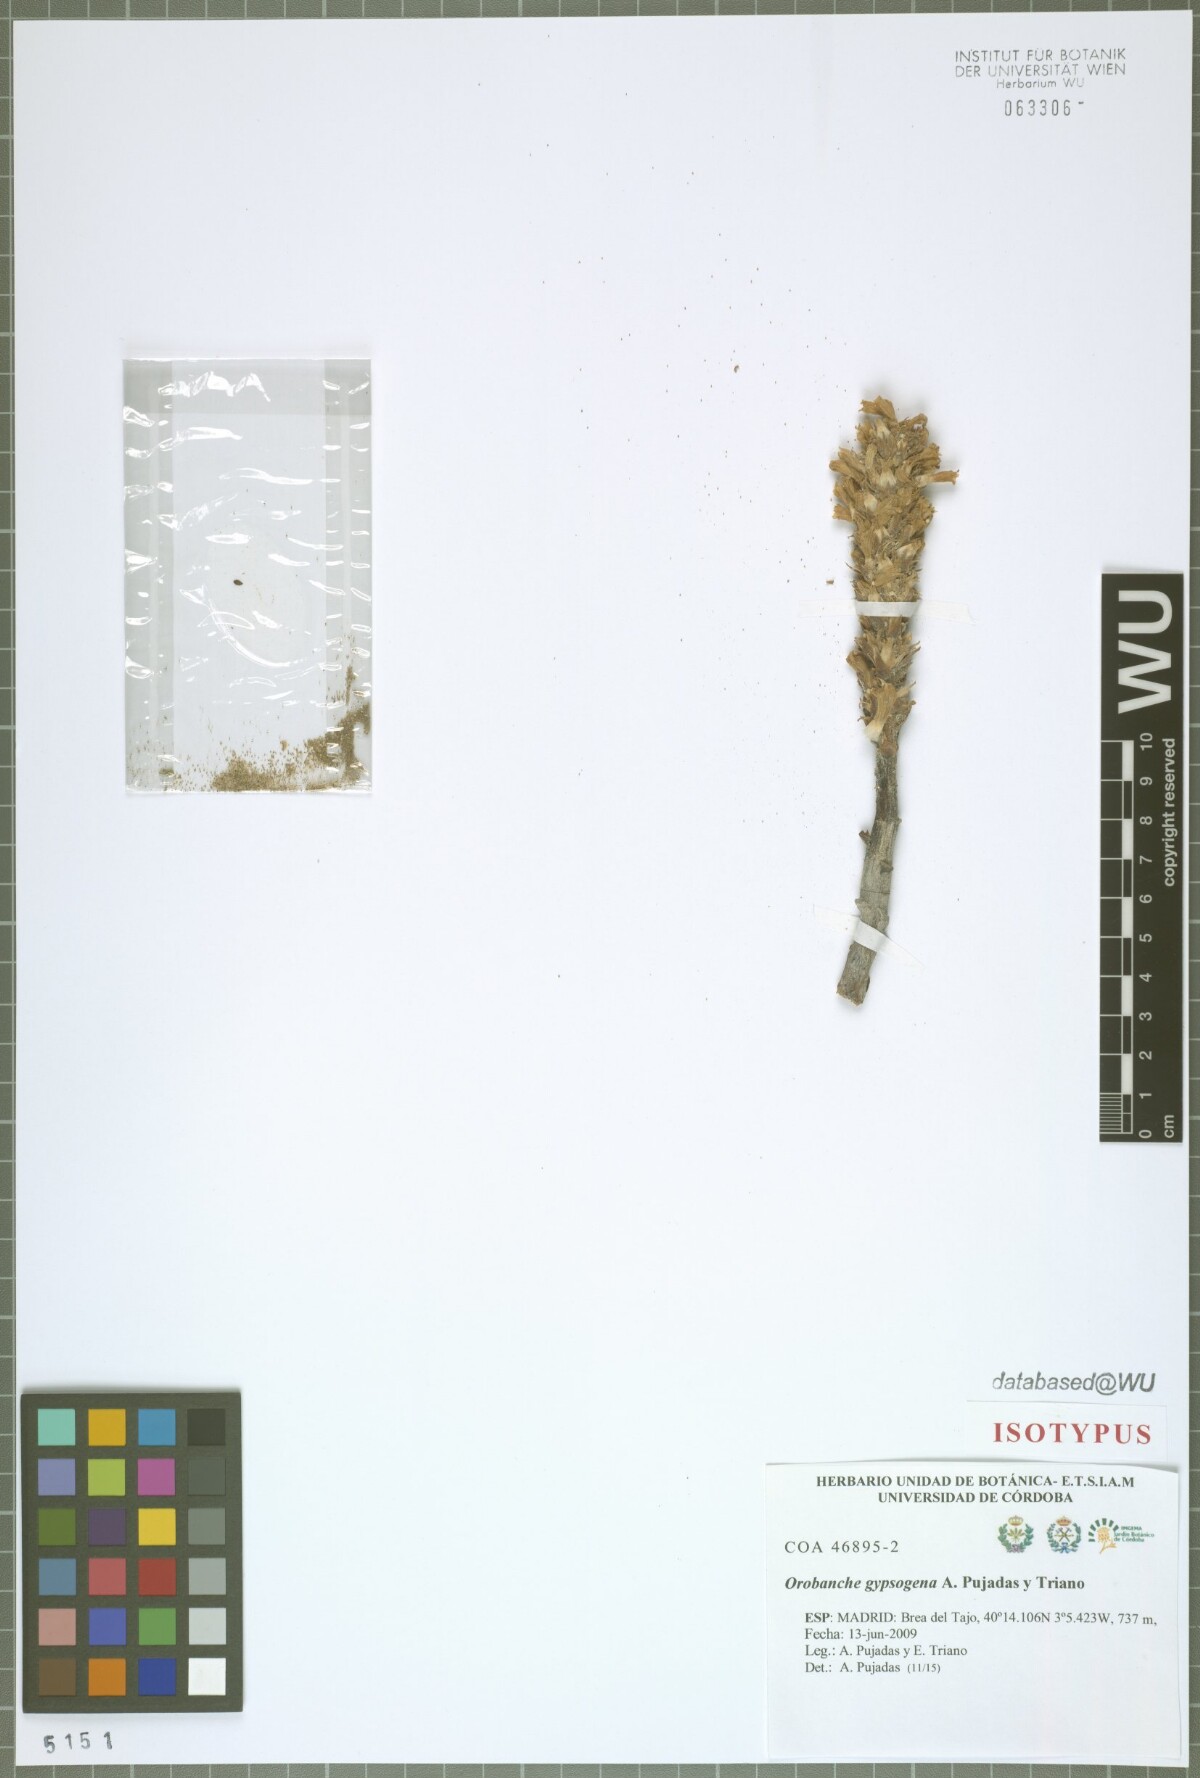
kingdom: Plantae
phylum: Tracheophyta
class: Magnoliopsida
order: Lamiales
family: Orobanchaceae
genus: Phelipanche
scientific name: Phelipanche portoilicitana
